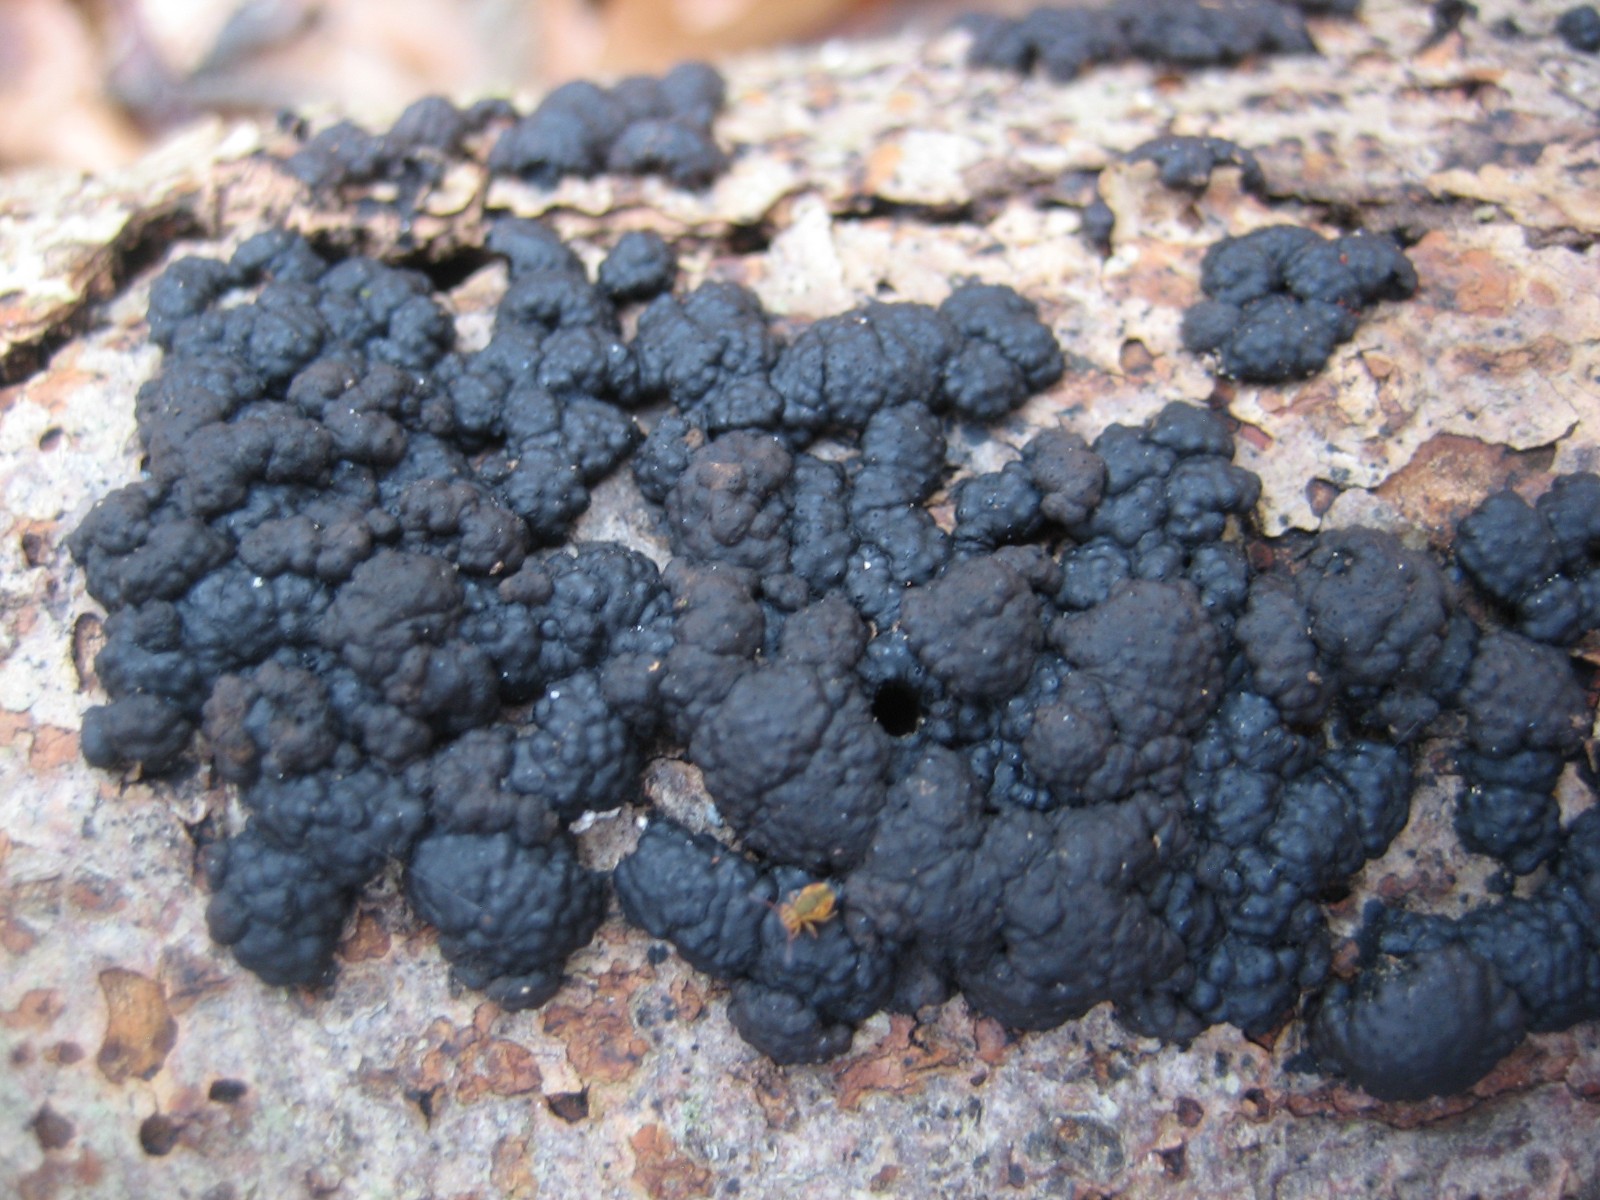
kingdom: Fungi
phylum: Ascomycota
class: Sordariomycetes
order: Xylariales
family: Hypoxylaceae
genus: Jackrogersella
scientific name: Jackrogersella cohaerens
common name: sammenflydende kulbær
